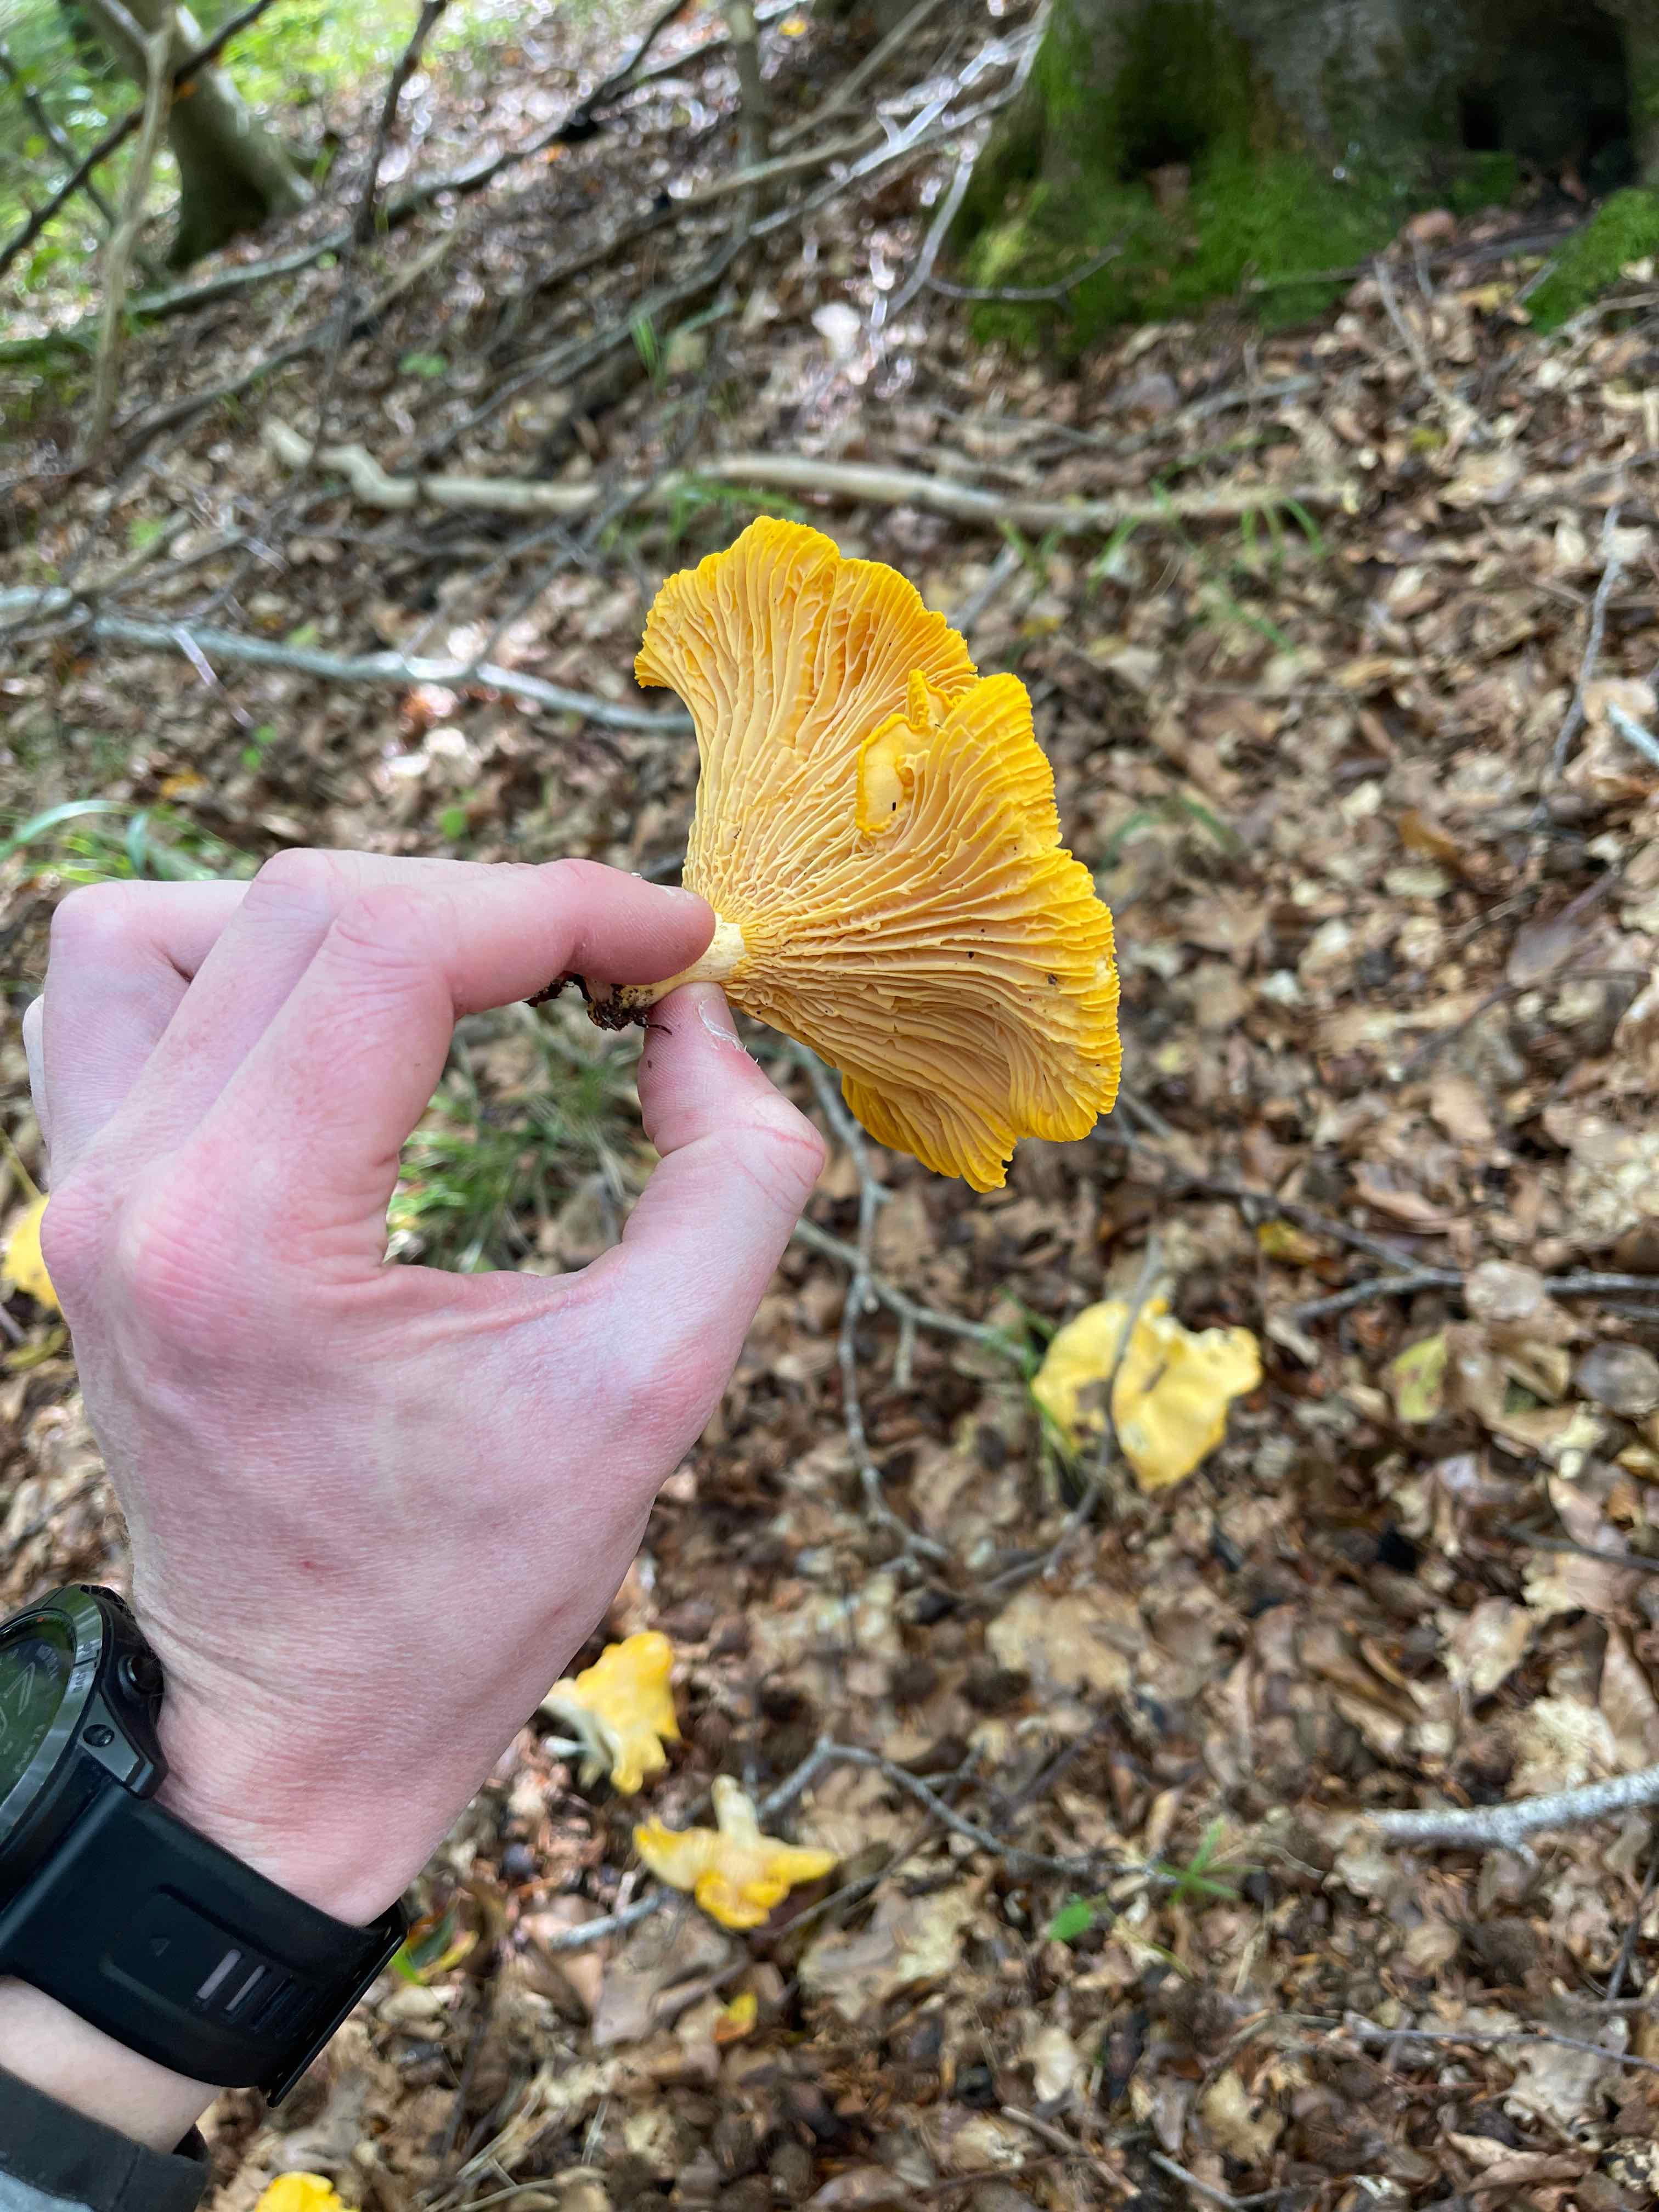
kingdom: Fungi
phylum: Basidiomycota
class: Agaricomycetes
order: Cantharellales
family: Hydnaceae
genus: Cantharellus
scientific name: Cantharellus cibarius
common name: almindelig kantarel
